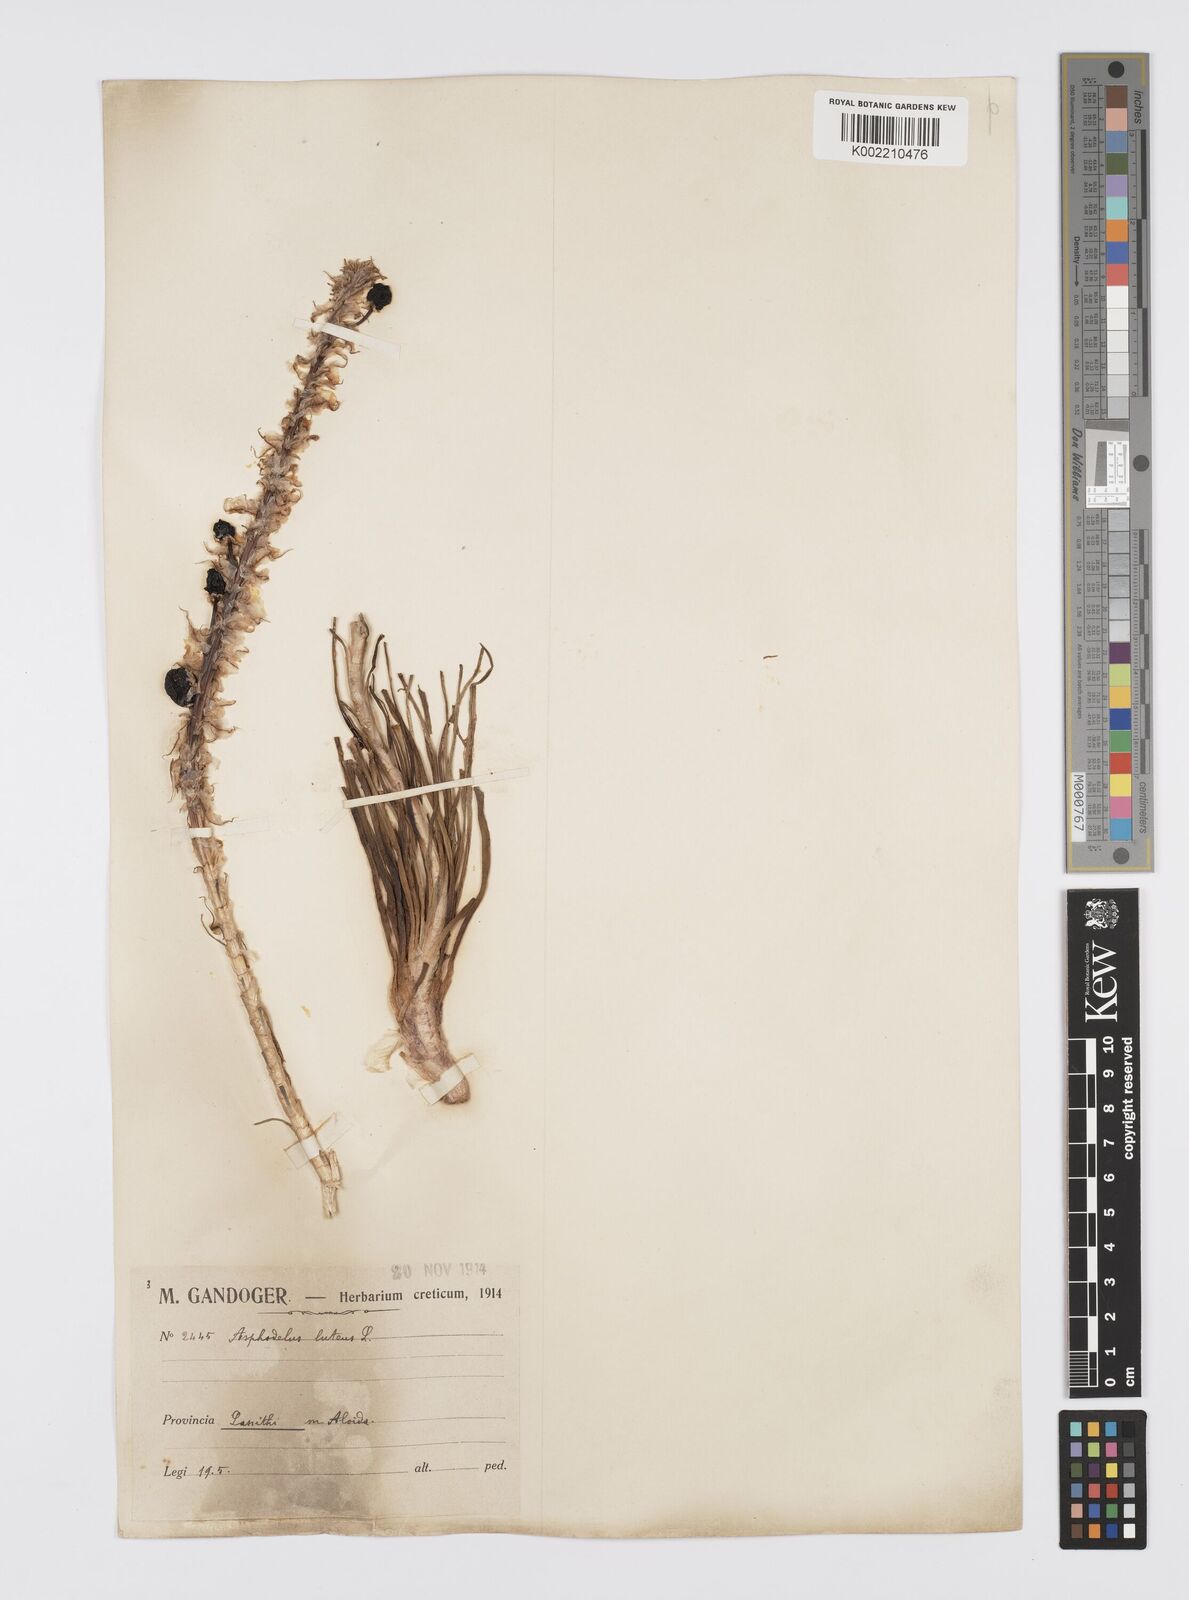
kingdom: Plantae
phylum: Tracheophyta
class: Liliopsida
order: Asparagales
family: Asphodelaceae
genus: Asphodeline
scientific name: Asphodeline lutea
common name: Yellow asphodel
